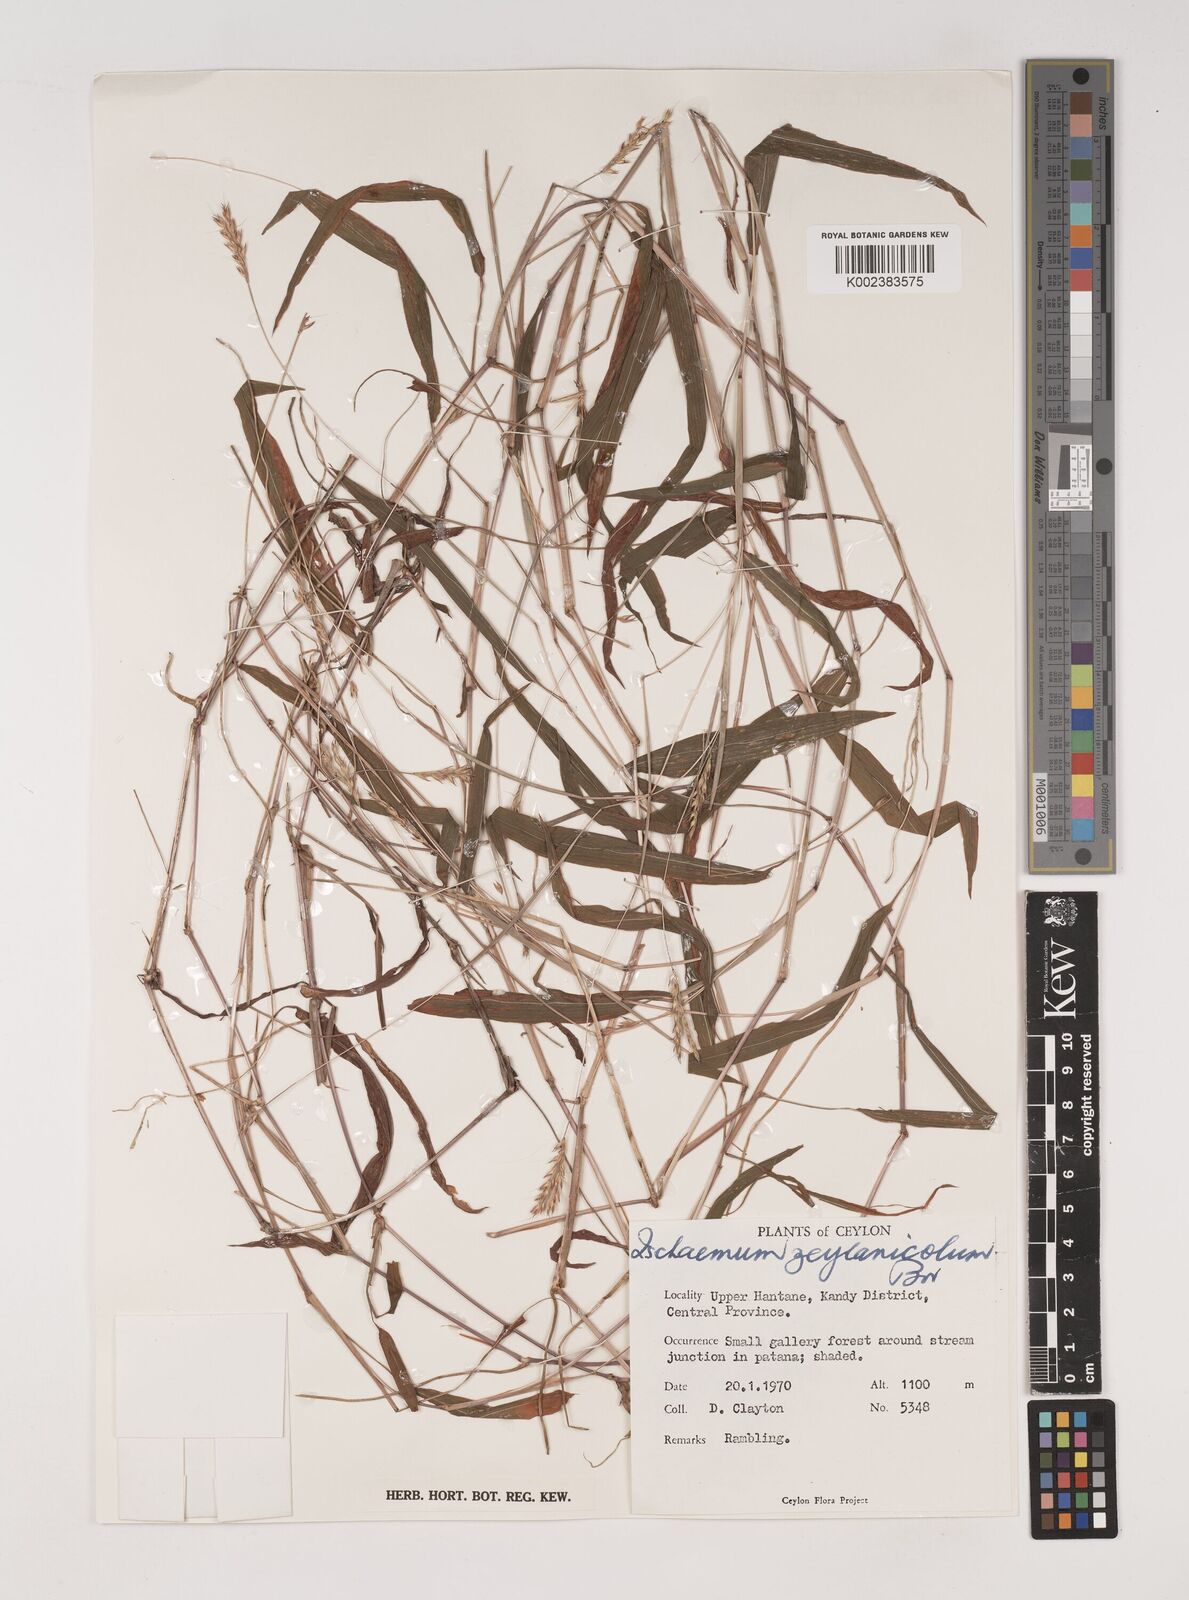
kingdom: Plantae
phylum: Tracheophyta
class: Liliopsida
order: Poales
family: Poaceae
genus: Ischaemum
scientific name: Ischaemum zeylanicola
